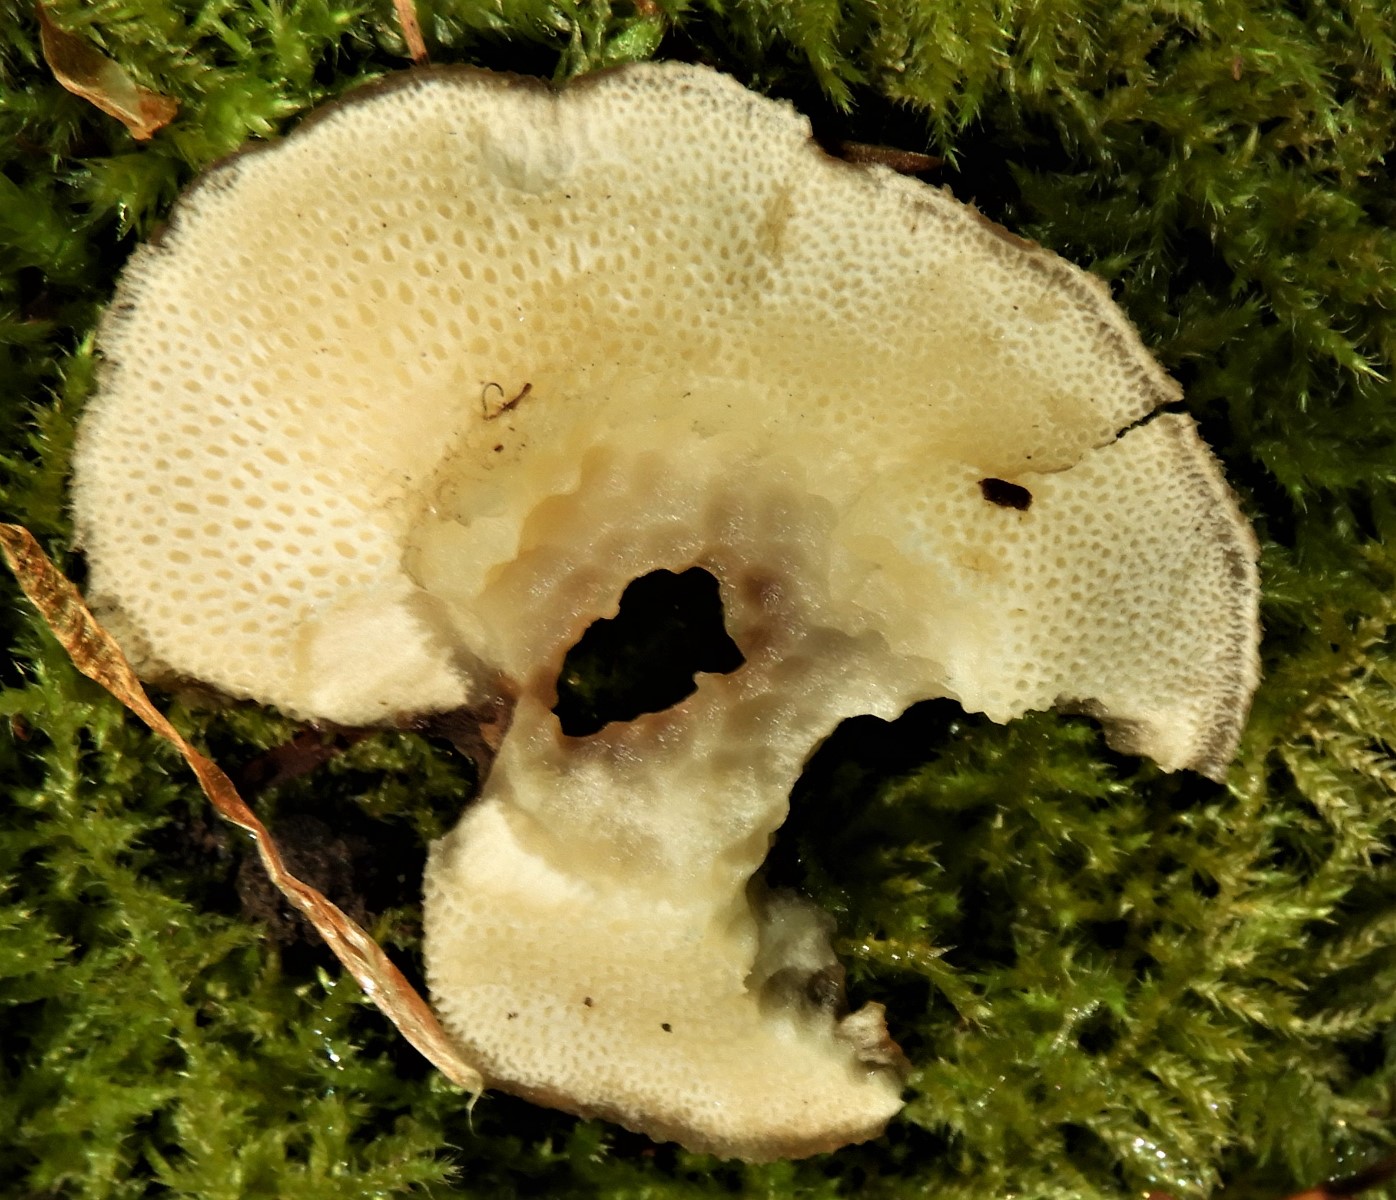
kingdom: Fungi
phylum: Basidiomycota
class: Agaricomycetes
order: Polyporales
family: Polyporaceae
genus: Polyporus
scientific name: Polyporus
